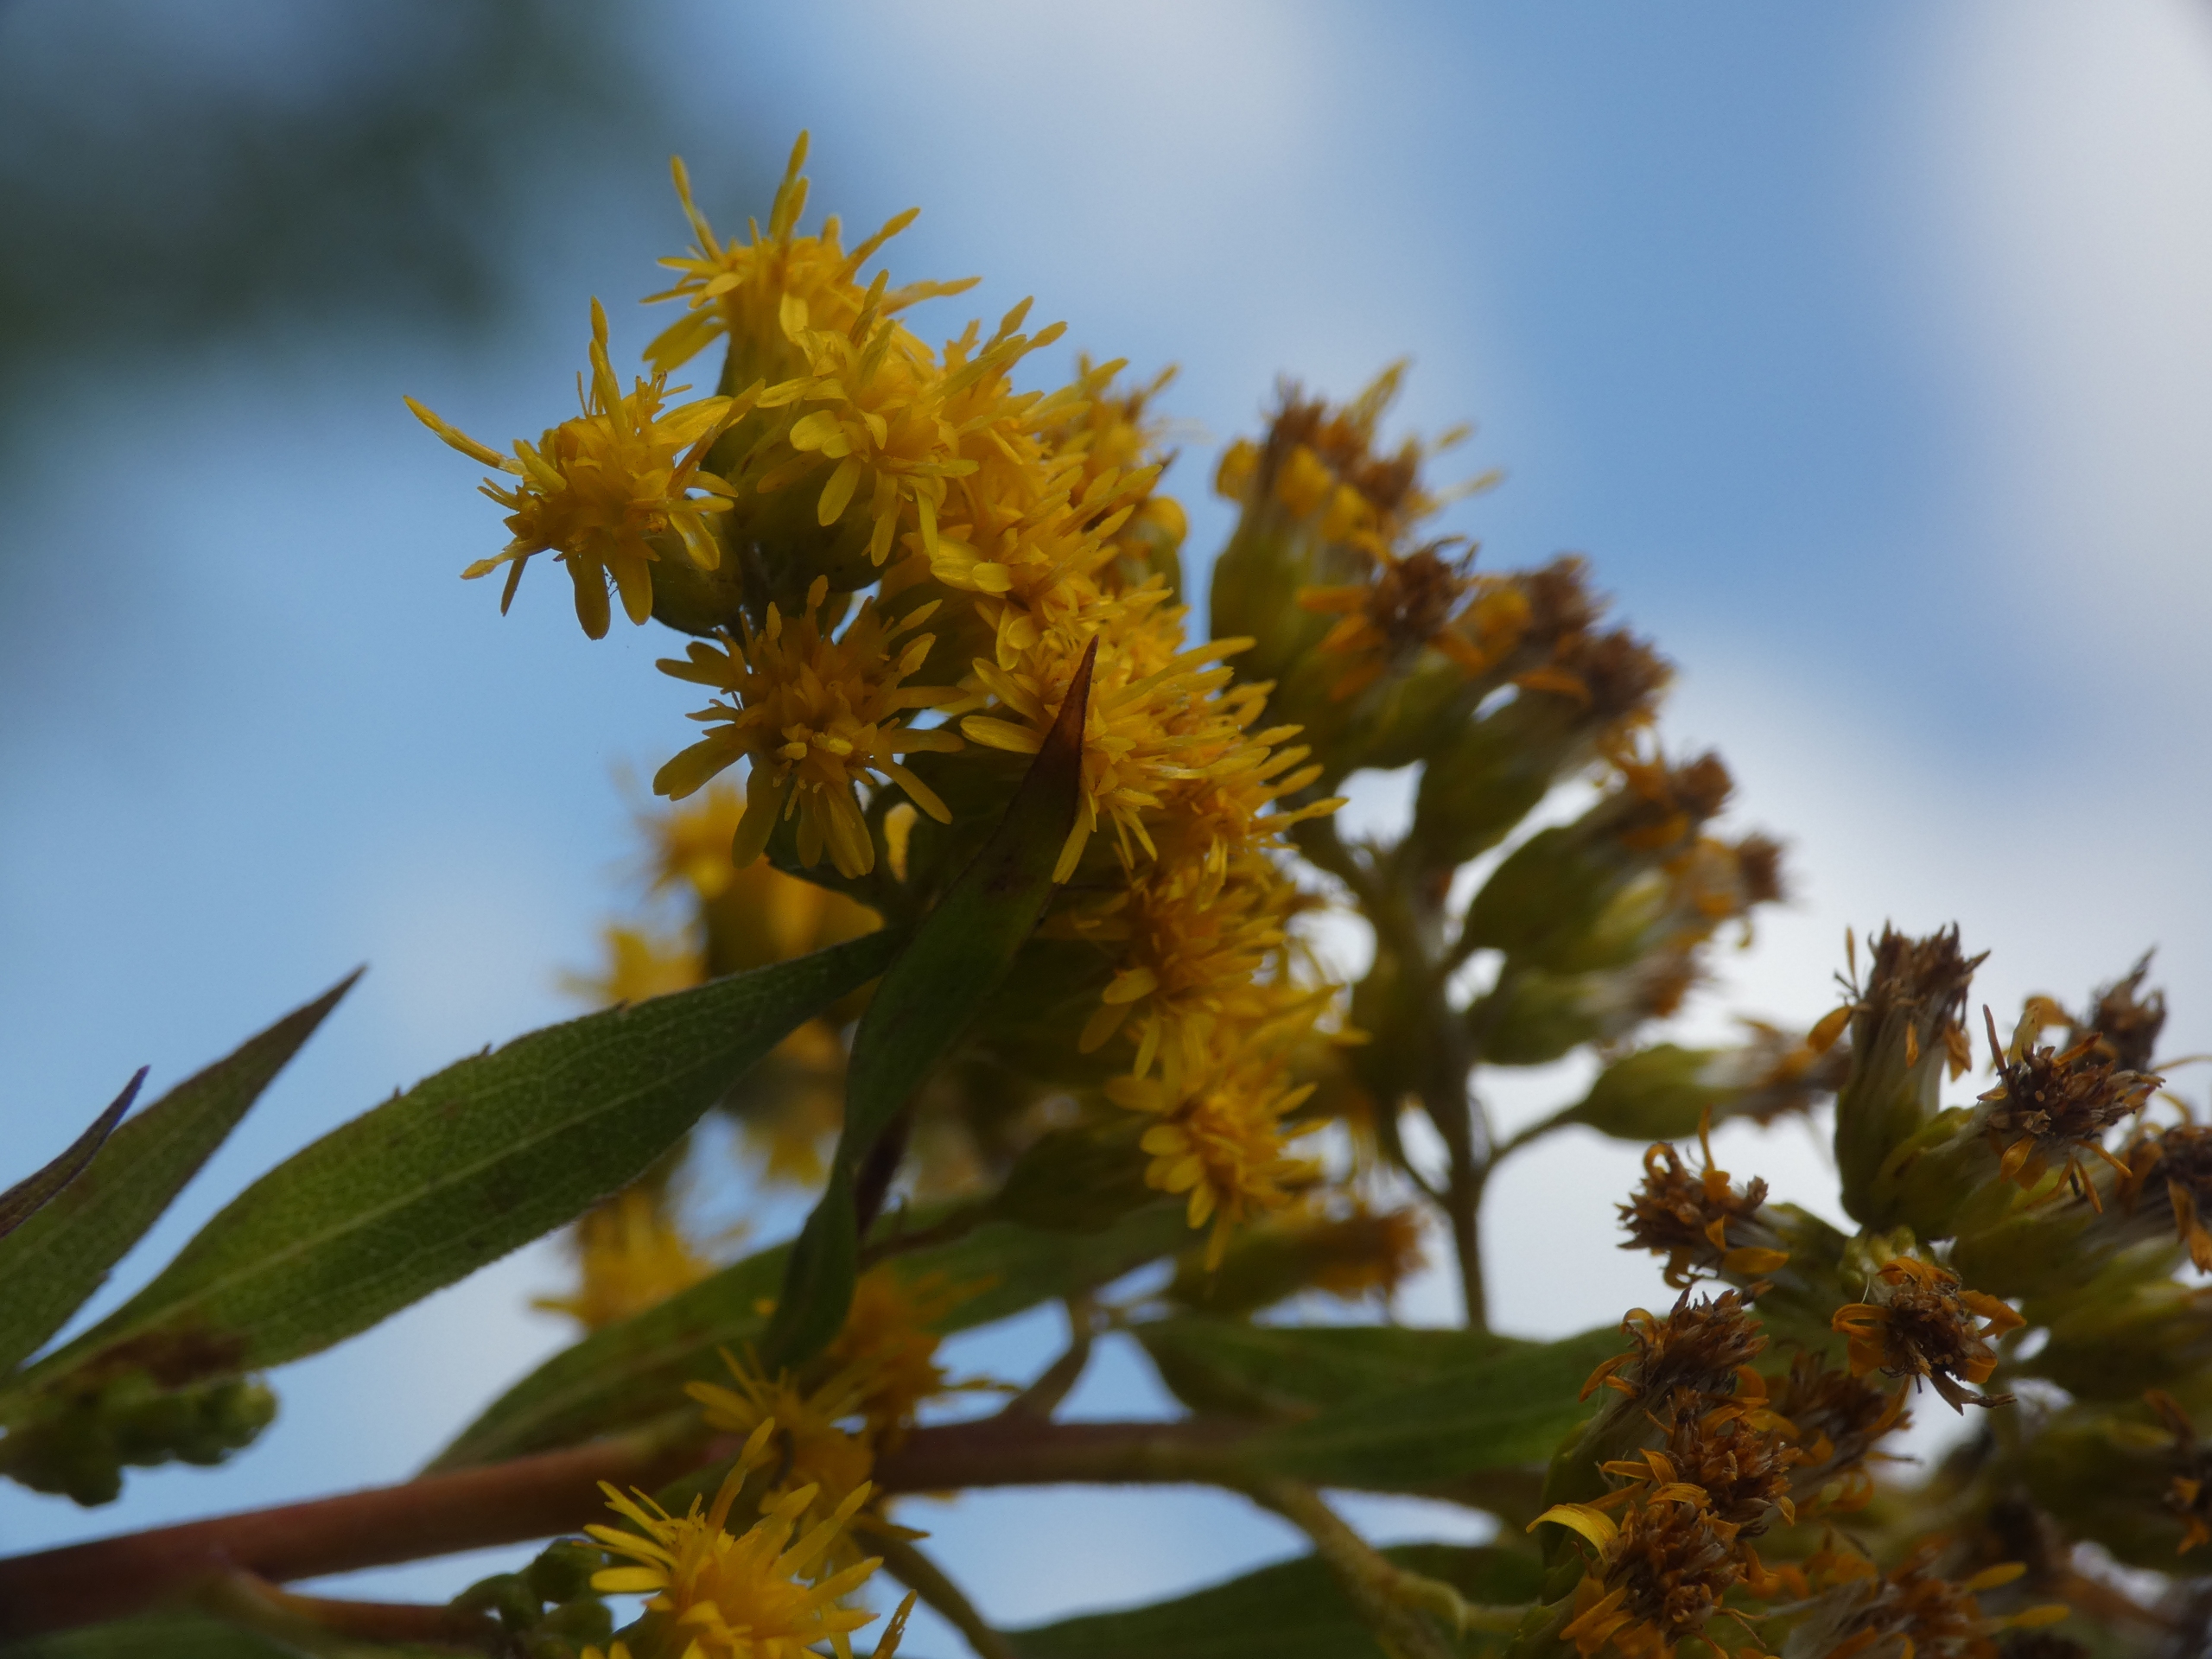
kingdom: Plantae
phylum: Tracheophyta
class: Magnoliopsida
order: Asterales
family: Asteraceae
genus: Solidago
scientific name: Solidago gigantea
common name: Sildig gyldenris
